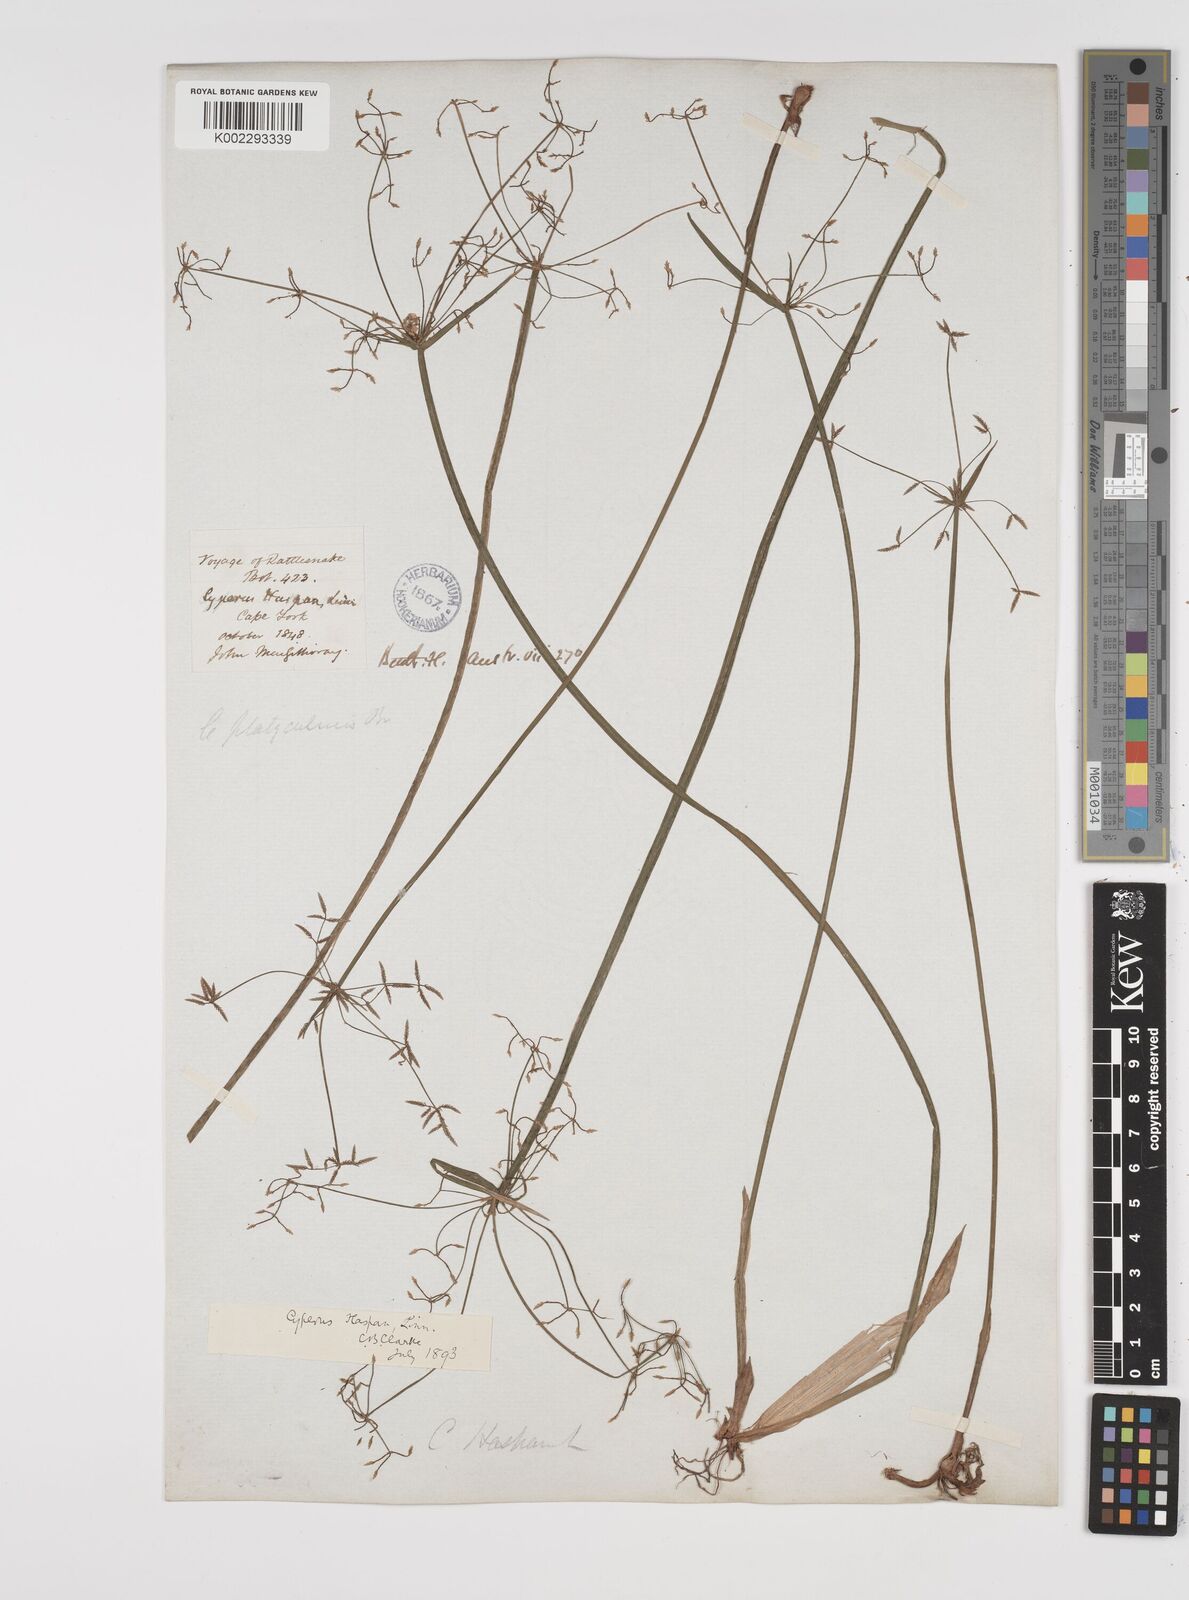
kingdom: Plantae
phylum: Tracheophyta
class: Liliopsida
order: Poales
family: Cyperaceae
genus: Cyperus
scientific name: Cyperus haspan
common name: Haspan flatsedge
